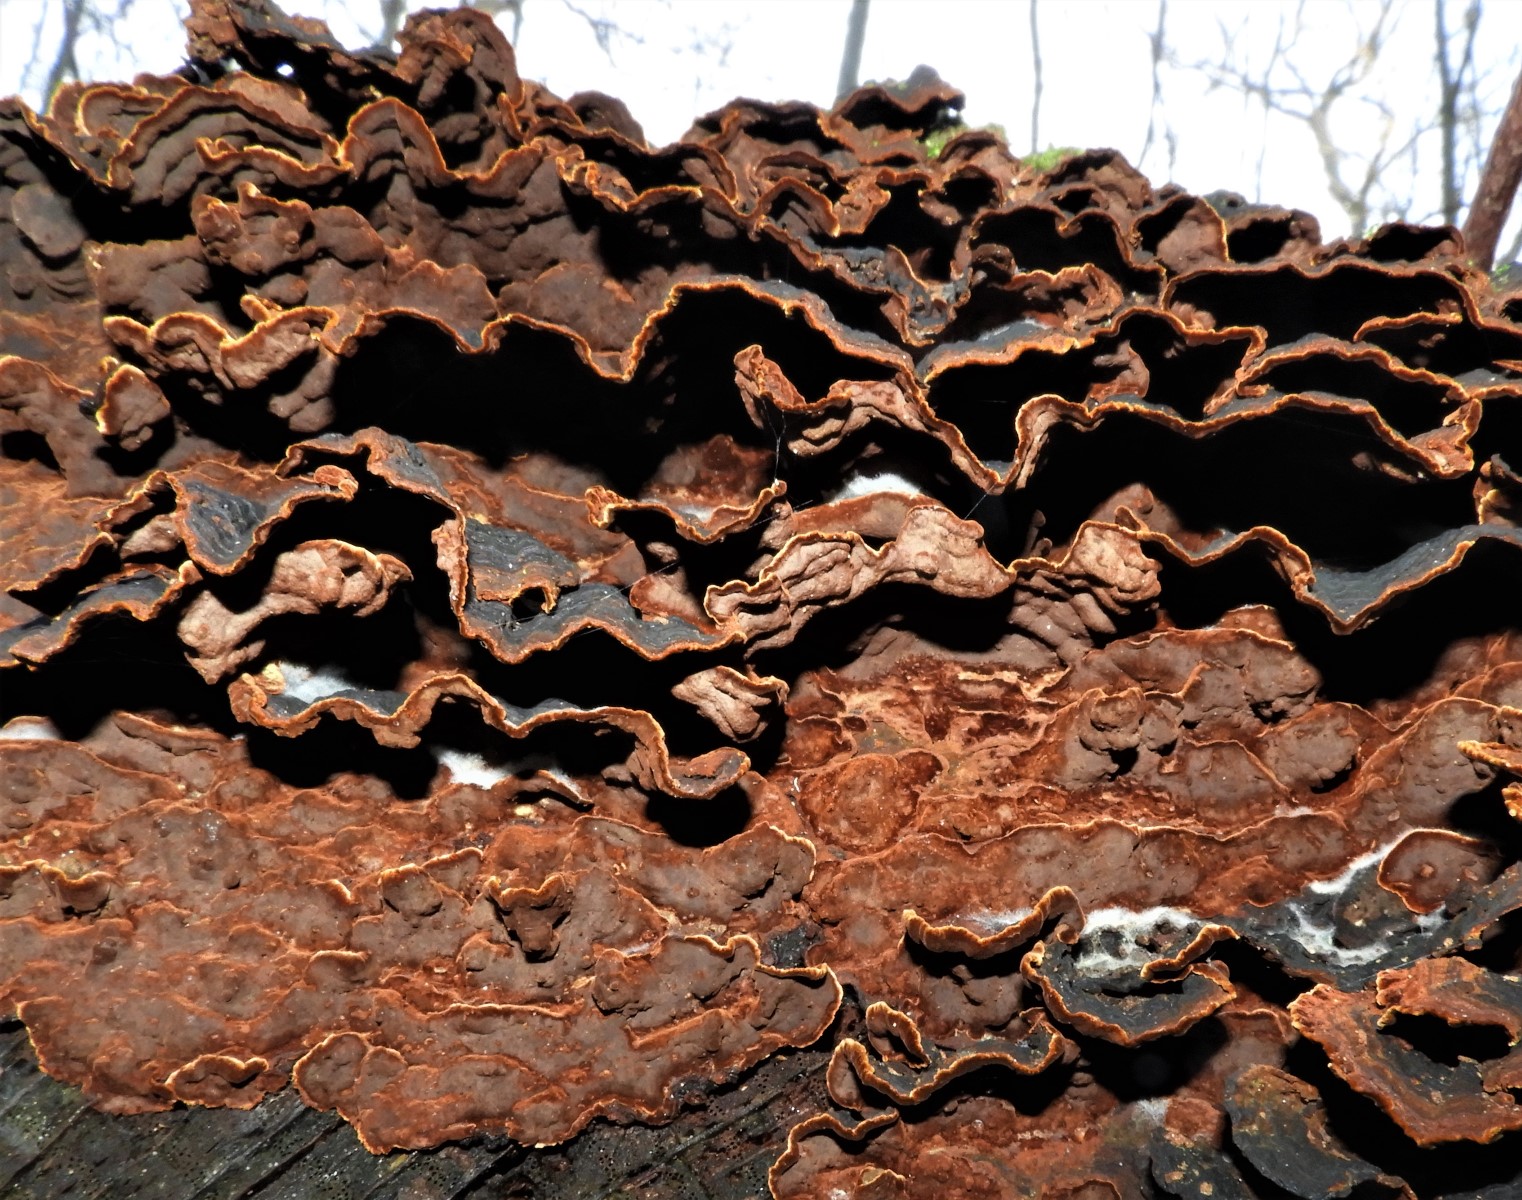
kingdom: Fungi
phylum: Basidiomycota
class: Agaricomycetes
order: Hymenochaetales
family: Hymenochaetaceae
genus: Hymenochaete
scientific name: Hymenochaete rubiginosa
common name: stiv ruslædersvamp
